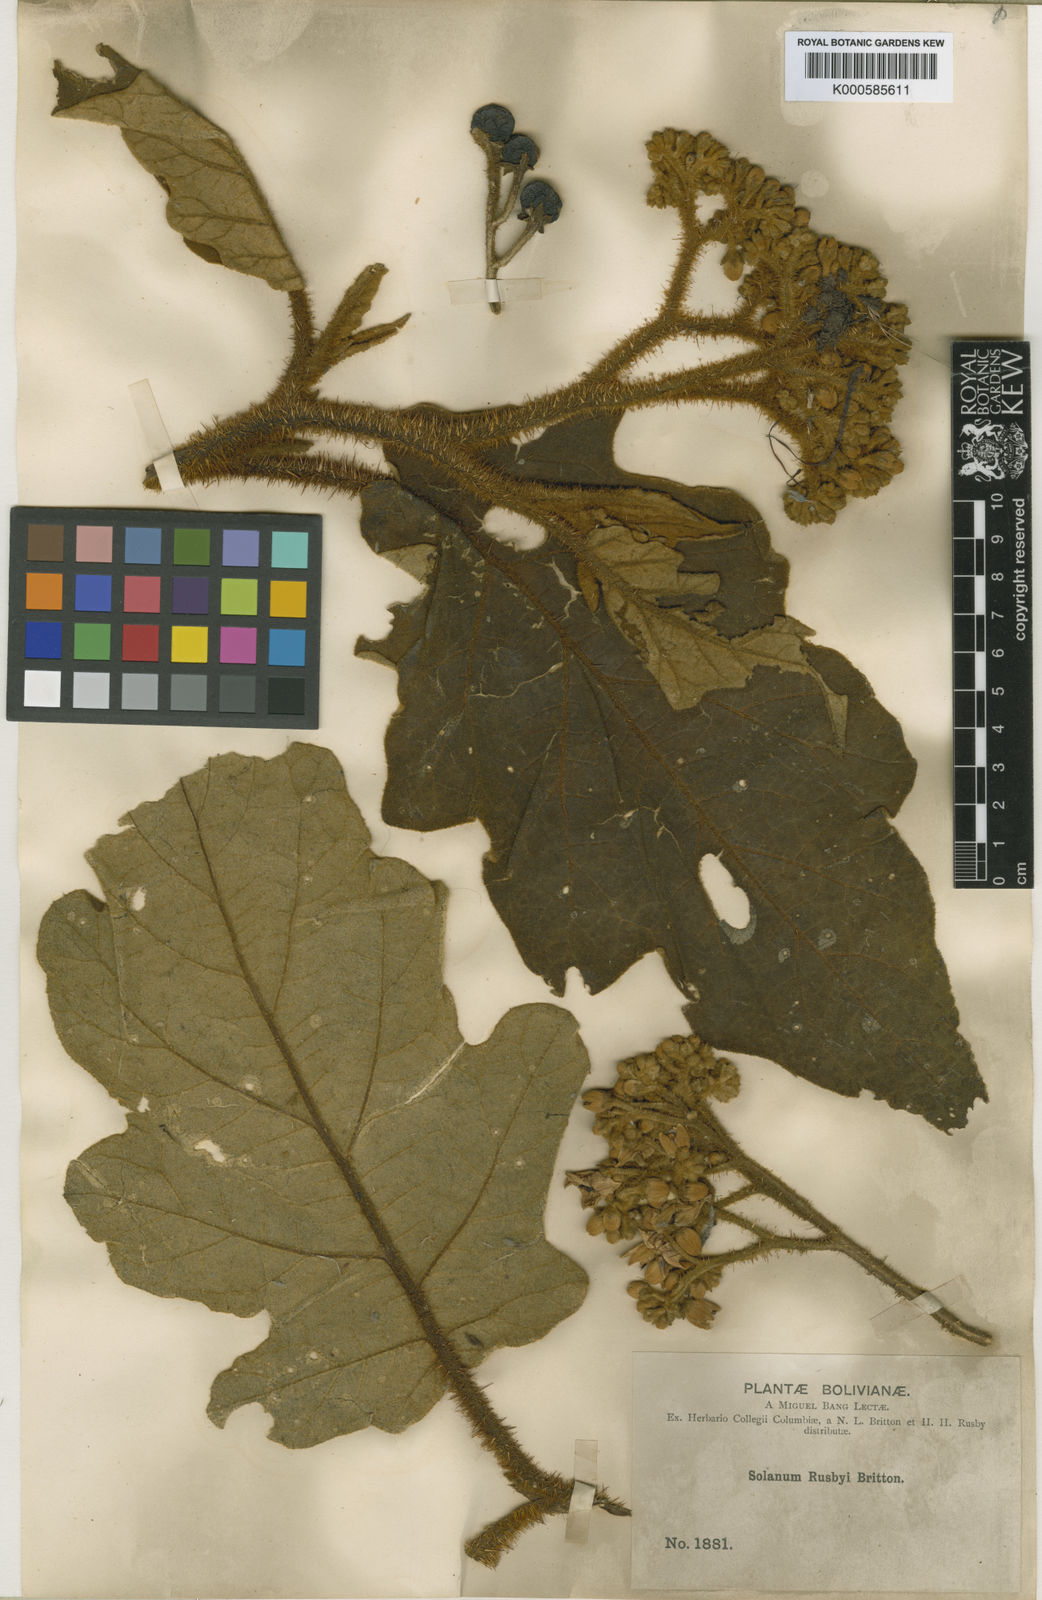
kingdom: Plantae
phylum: Tracheophyta
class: Magnoliopsida
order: Solanales
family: Solanaceae
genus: Solanum
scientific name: Solanum
